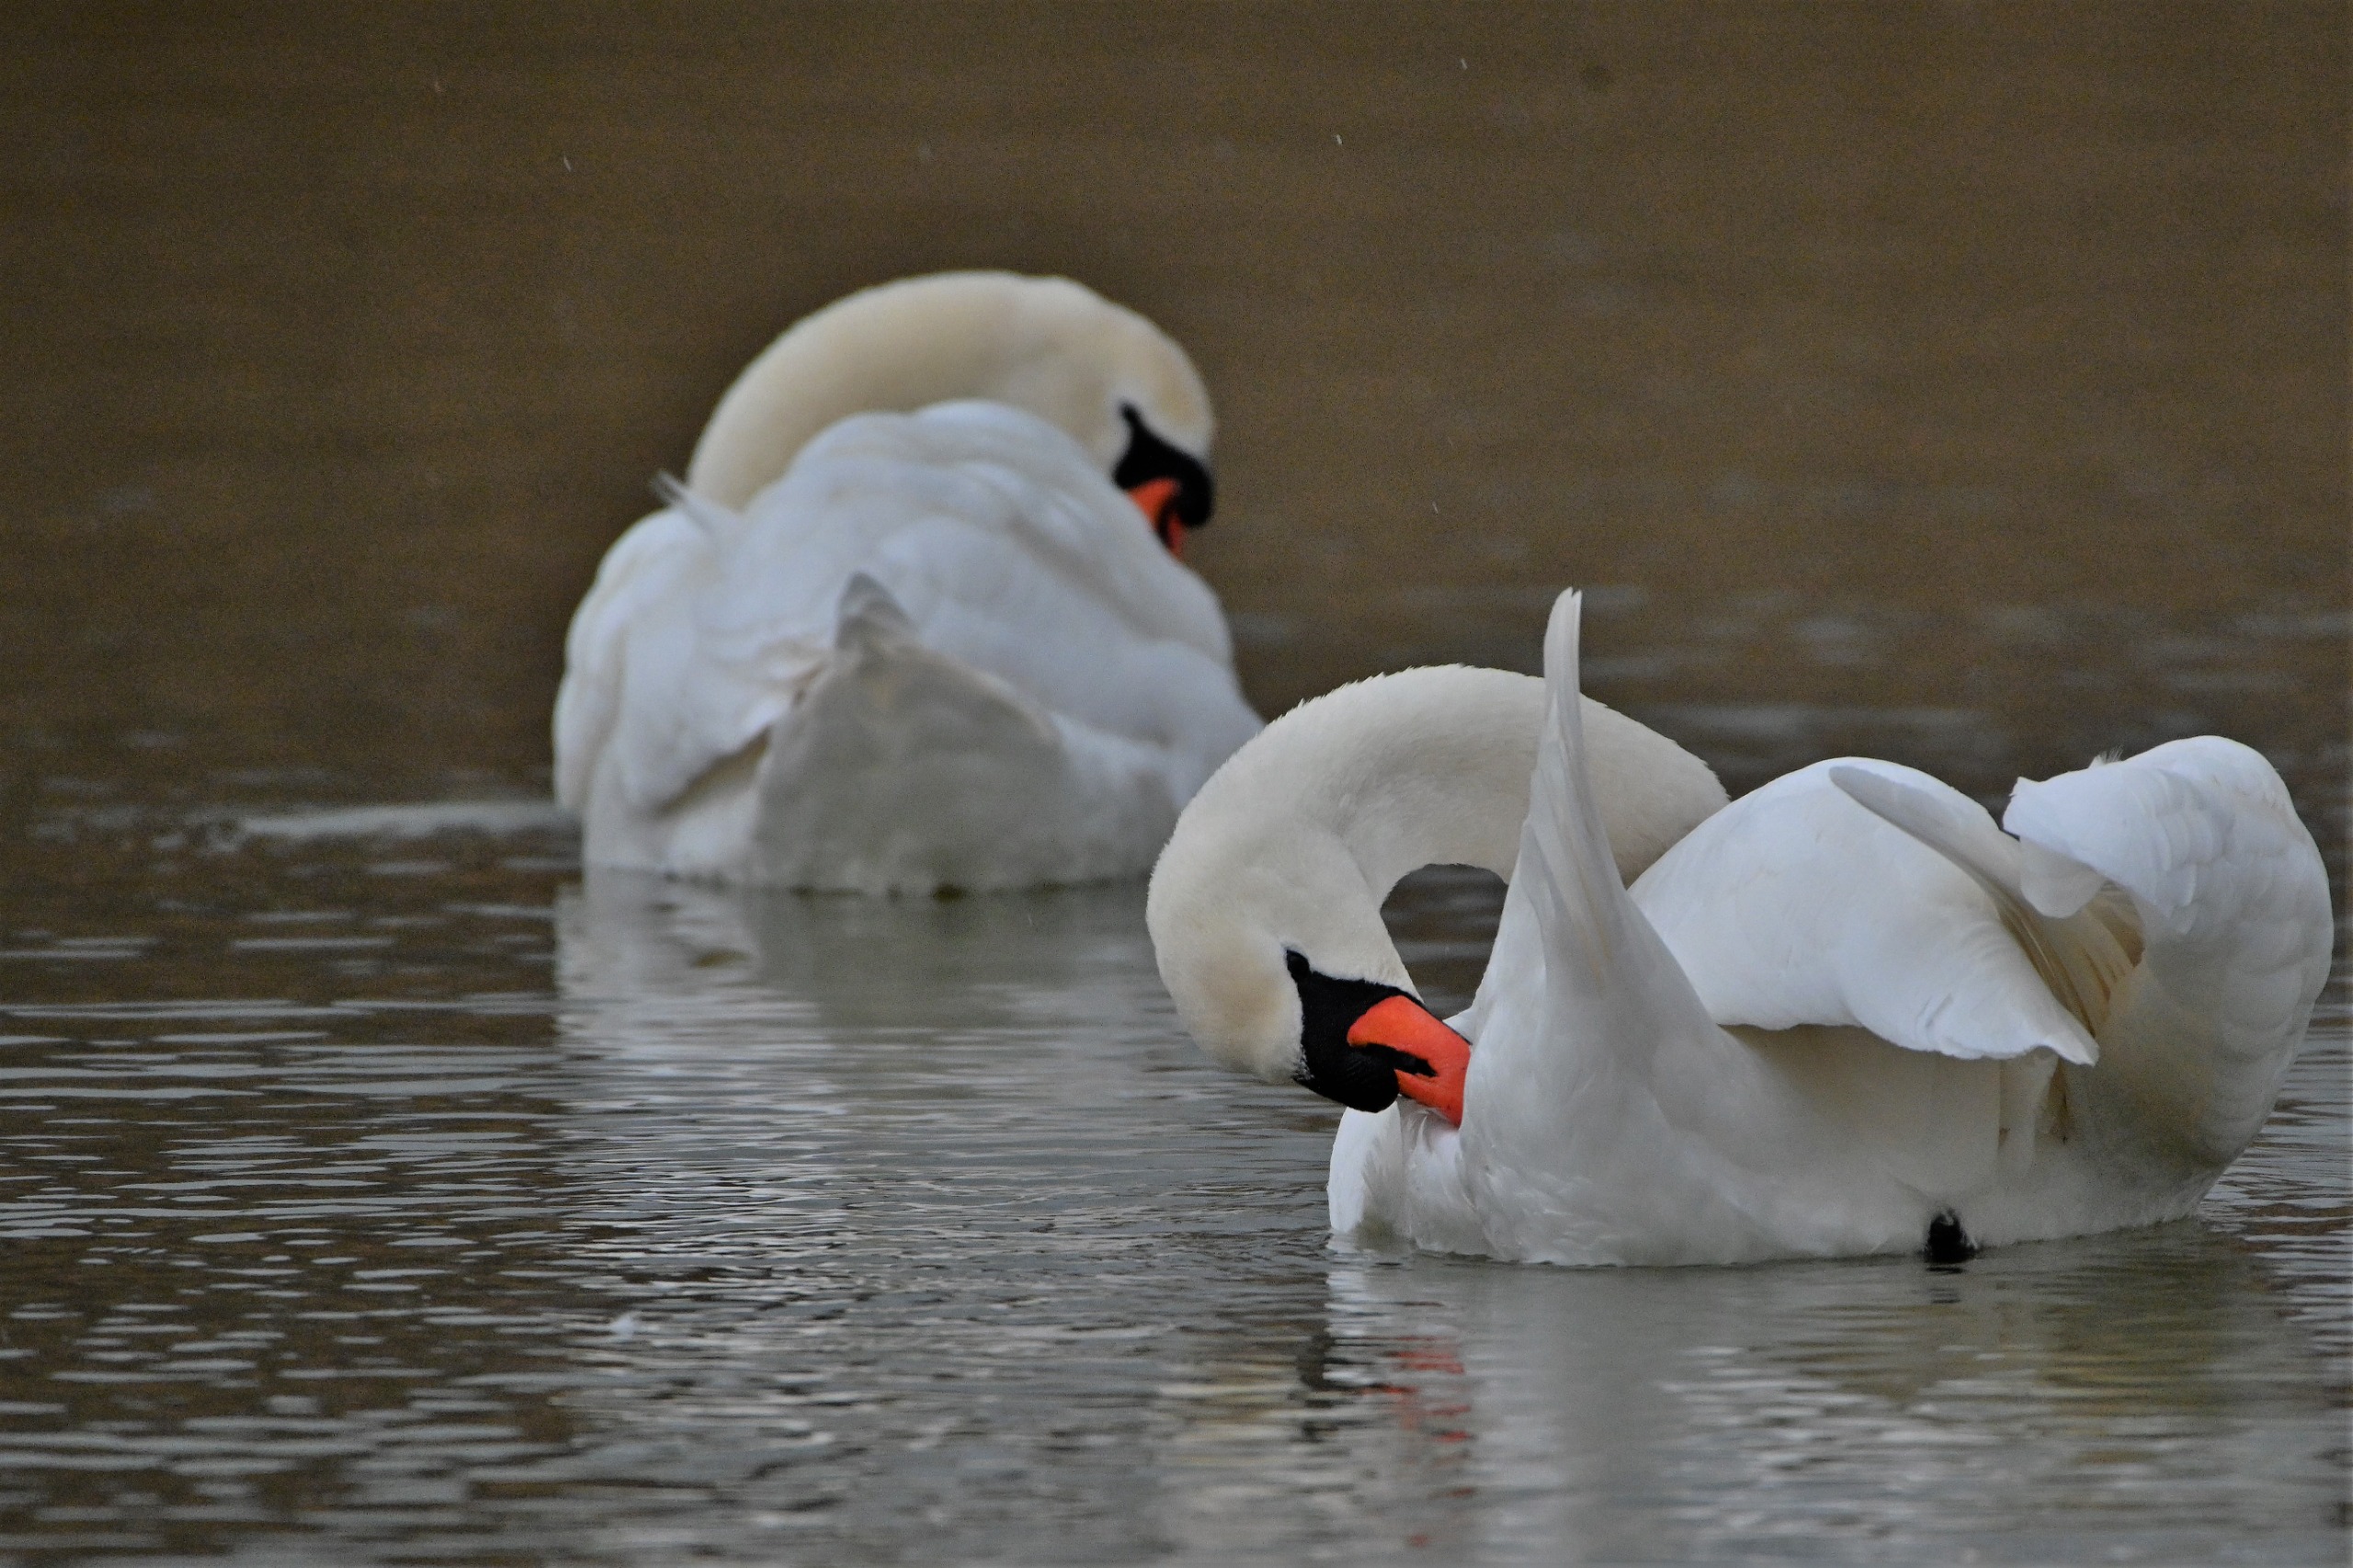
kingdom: Animalia
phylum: Chordata
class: Aves
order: Anseriformes
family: Anatidae
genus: Cygnus
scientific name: Cygnus olor
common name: Knopsvane
